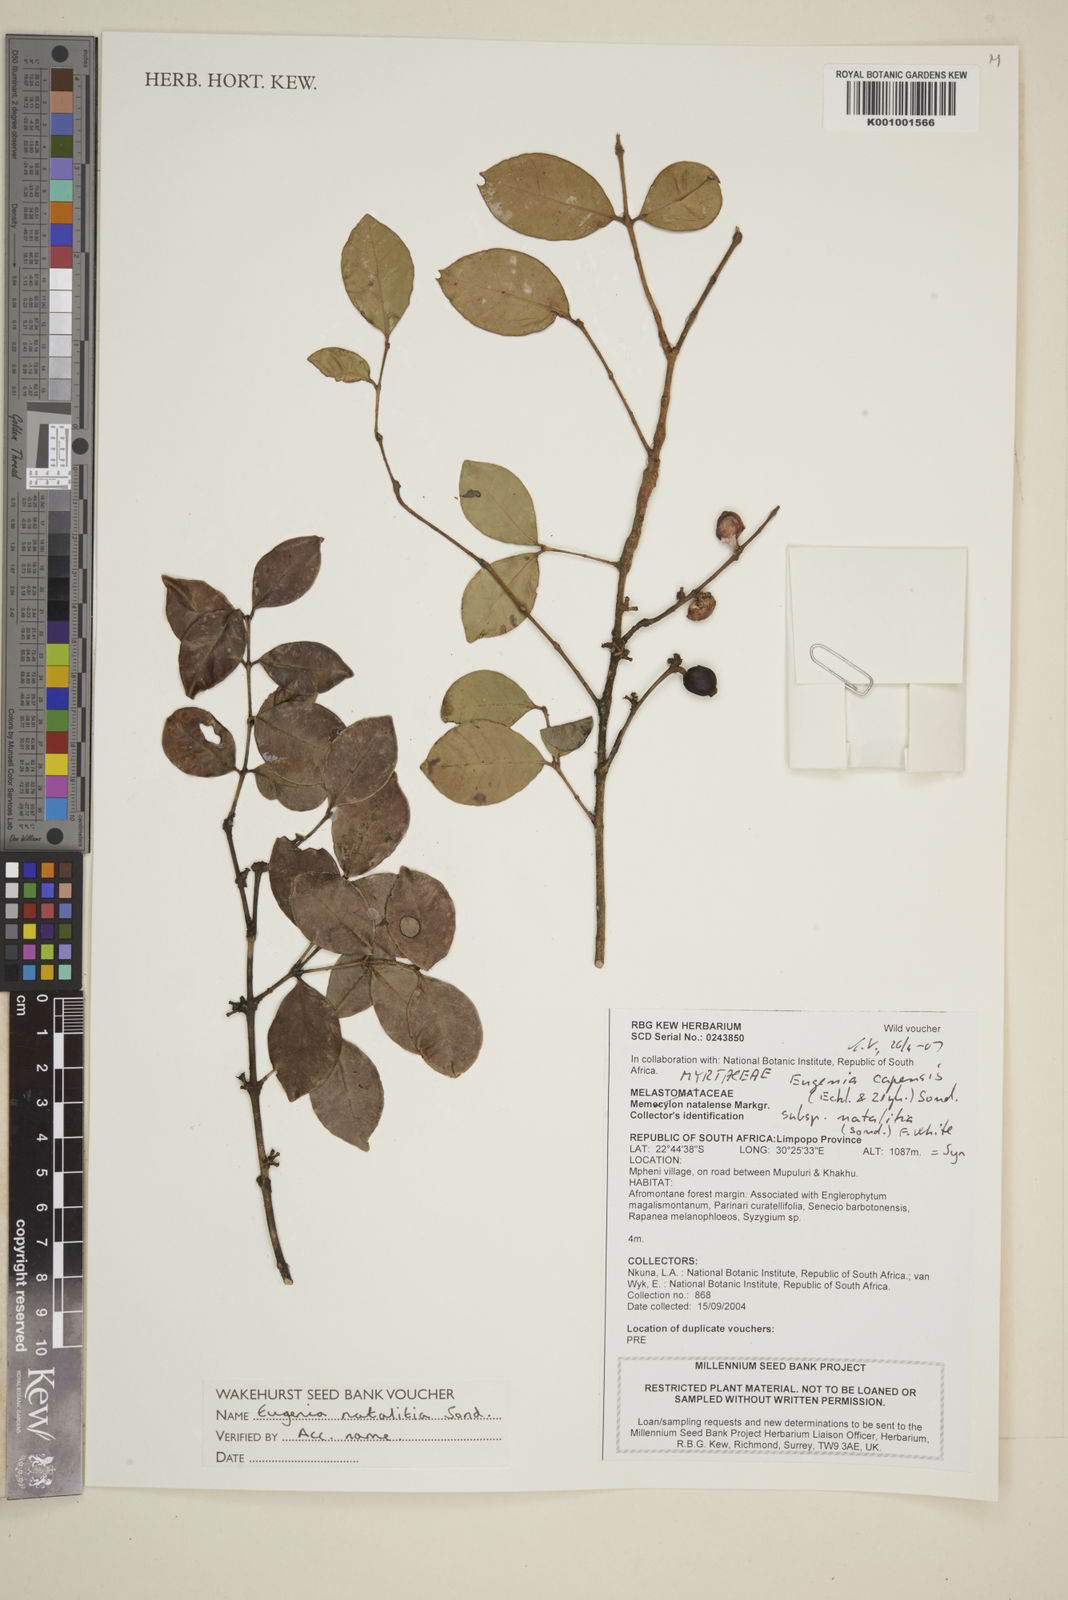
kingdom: Plantae
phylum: Tracheophyta
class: Magnoliopsida
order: Myrtales
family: Myrtaceae
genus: Eugenia
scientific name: Eugenia natalitia
